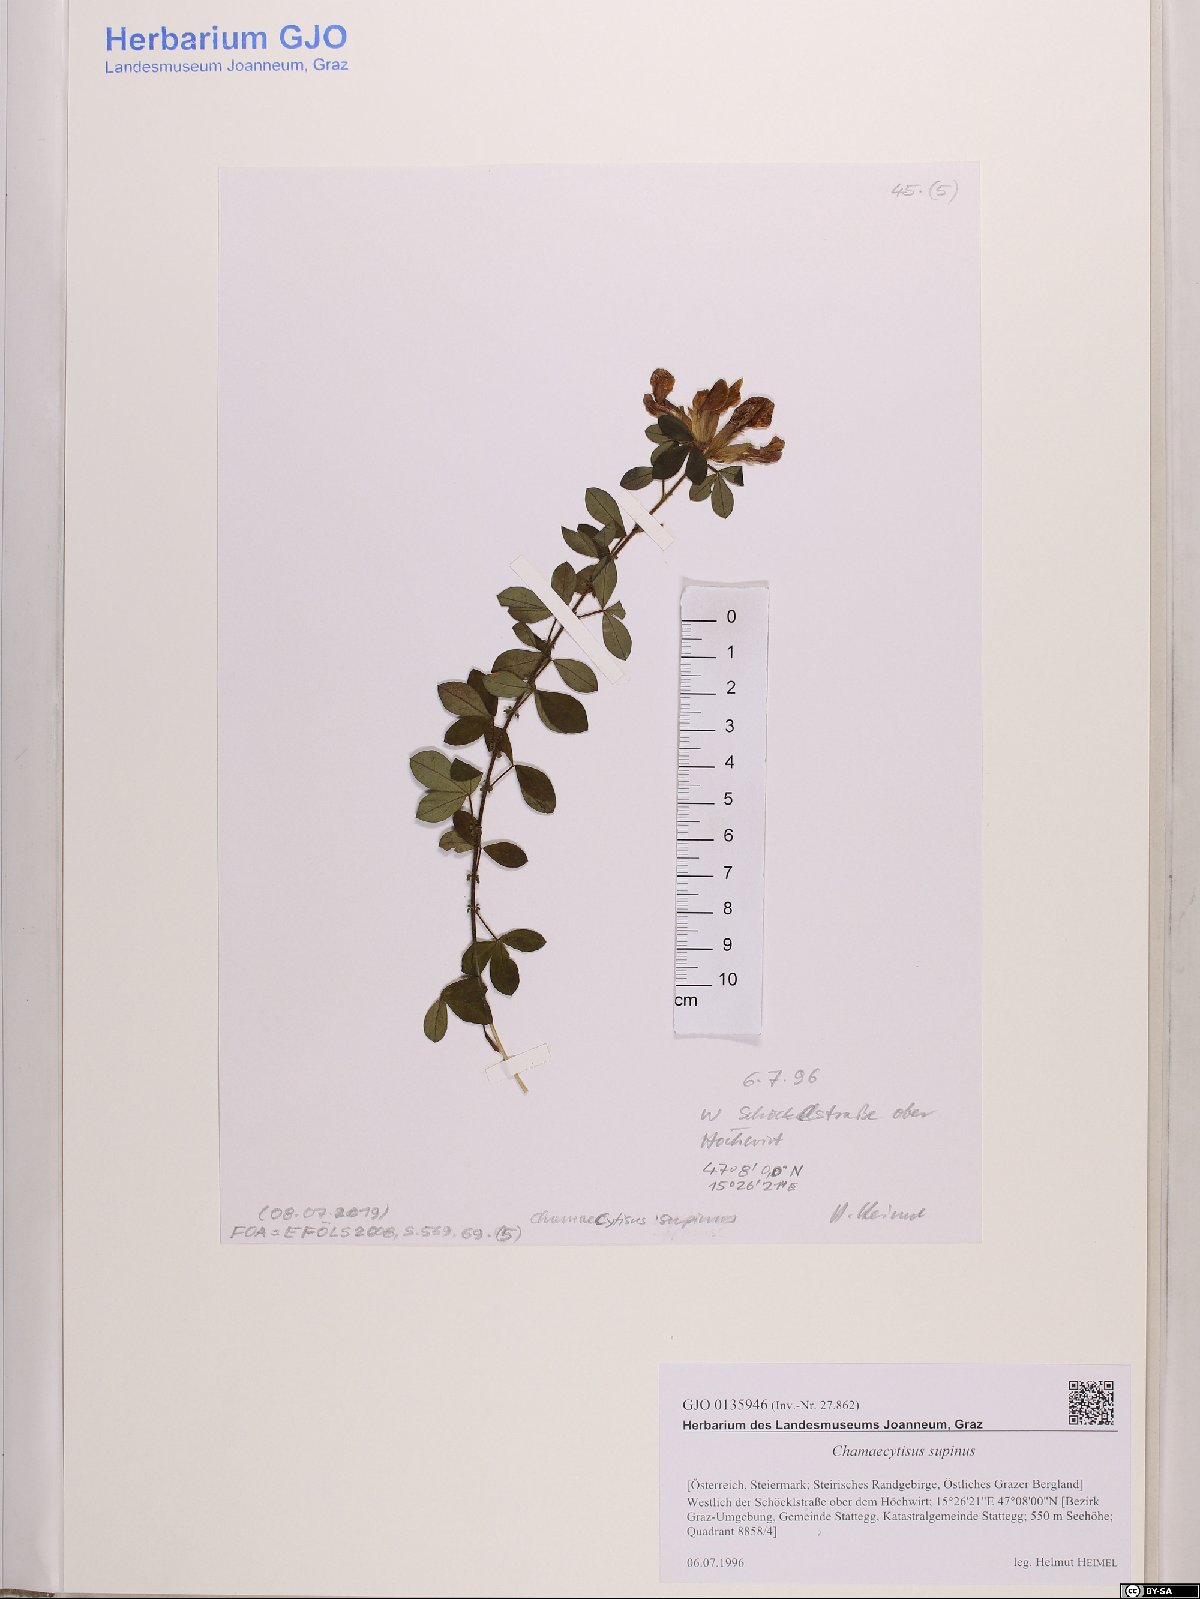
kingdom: Plantae
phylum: Tracheophyta
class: Magnoliopsida
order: Fabales
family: Fabaceae
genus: Chamaecytisus
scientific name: Chamaecytisus supinus
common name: Clustered broom
